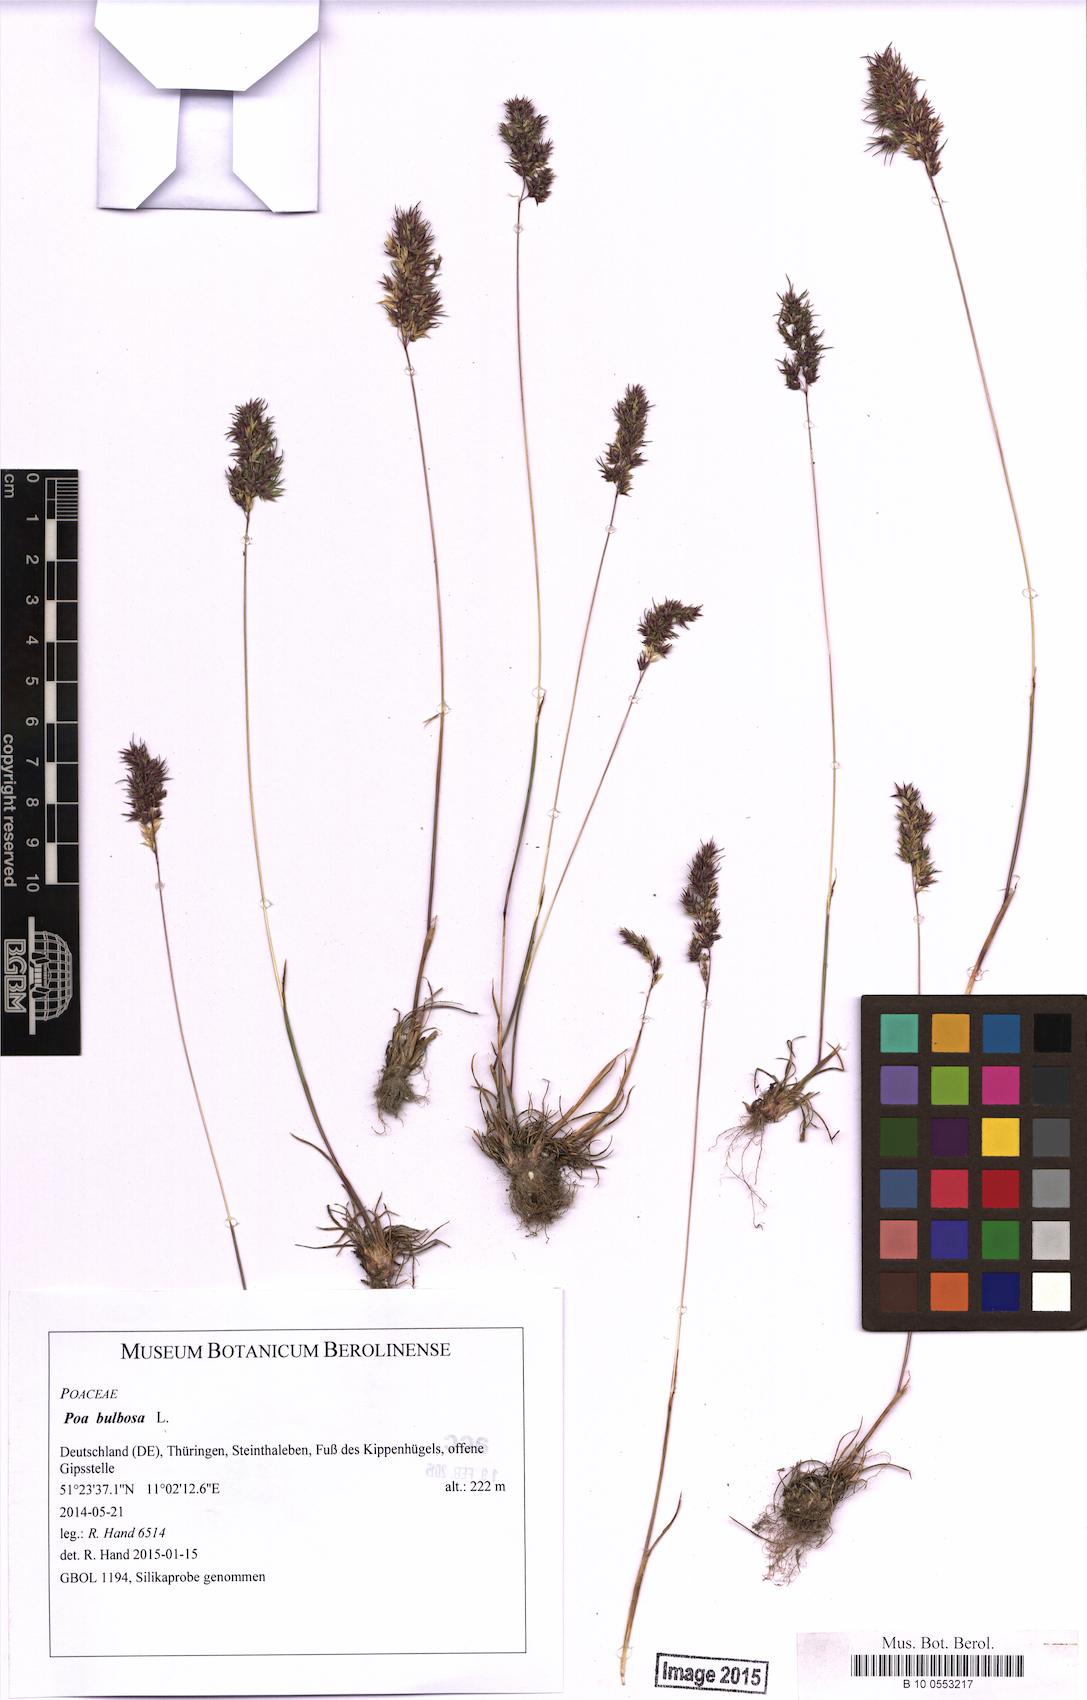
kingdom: Plantae
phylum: Tracheophyta
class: Liliopsida
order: Poales
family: Poaceae
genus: Poa
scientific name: Poa bulbosa
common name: Bulbous bluegrass
